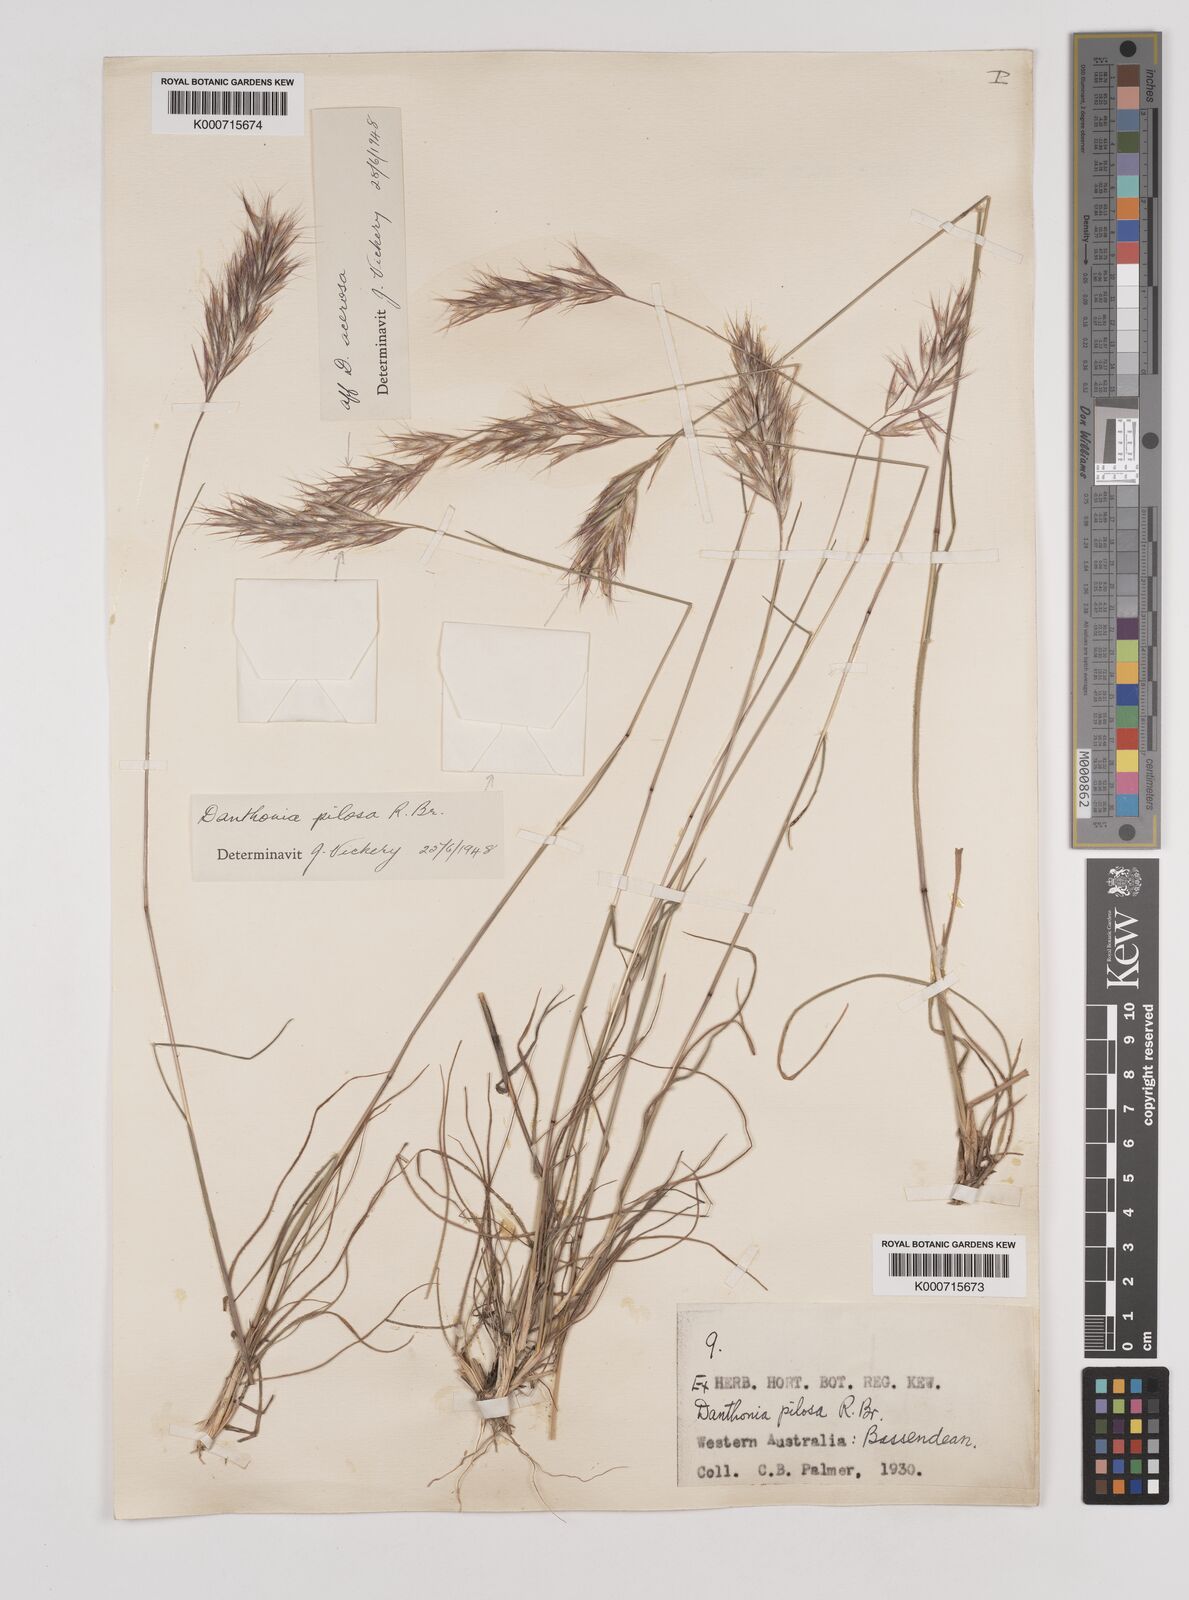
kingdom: Plantae
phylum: Tracheophyta
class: Liliopsida
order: Poales
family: Poaceae
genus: Rytidosperma
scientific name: Rytidosperma acerosum
